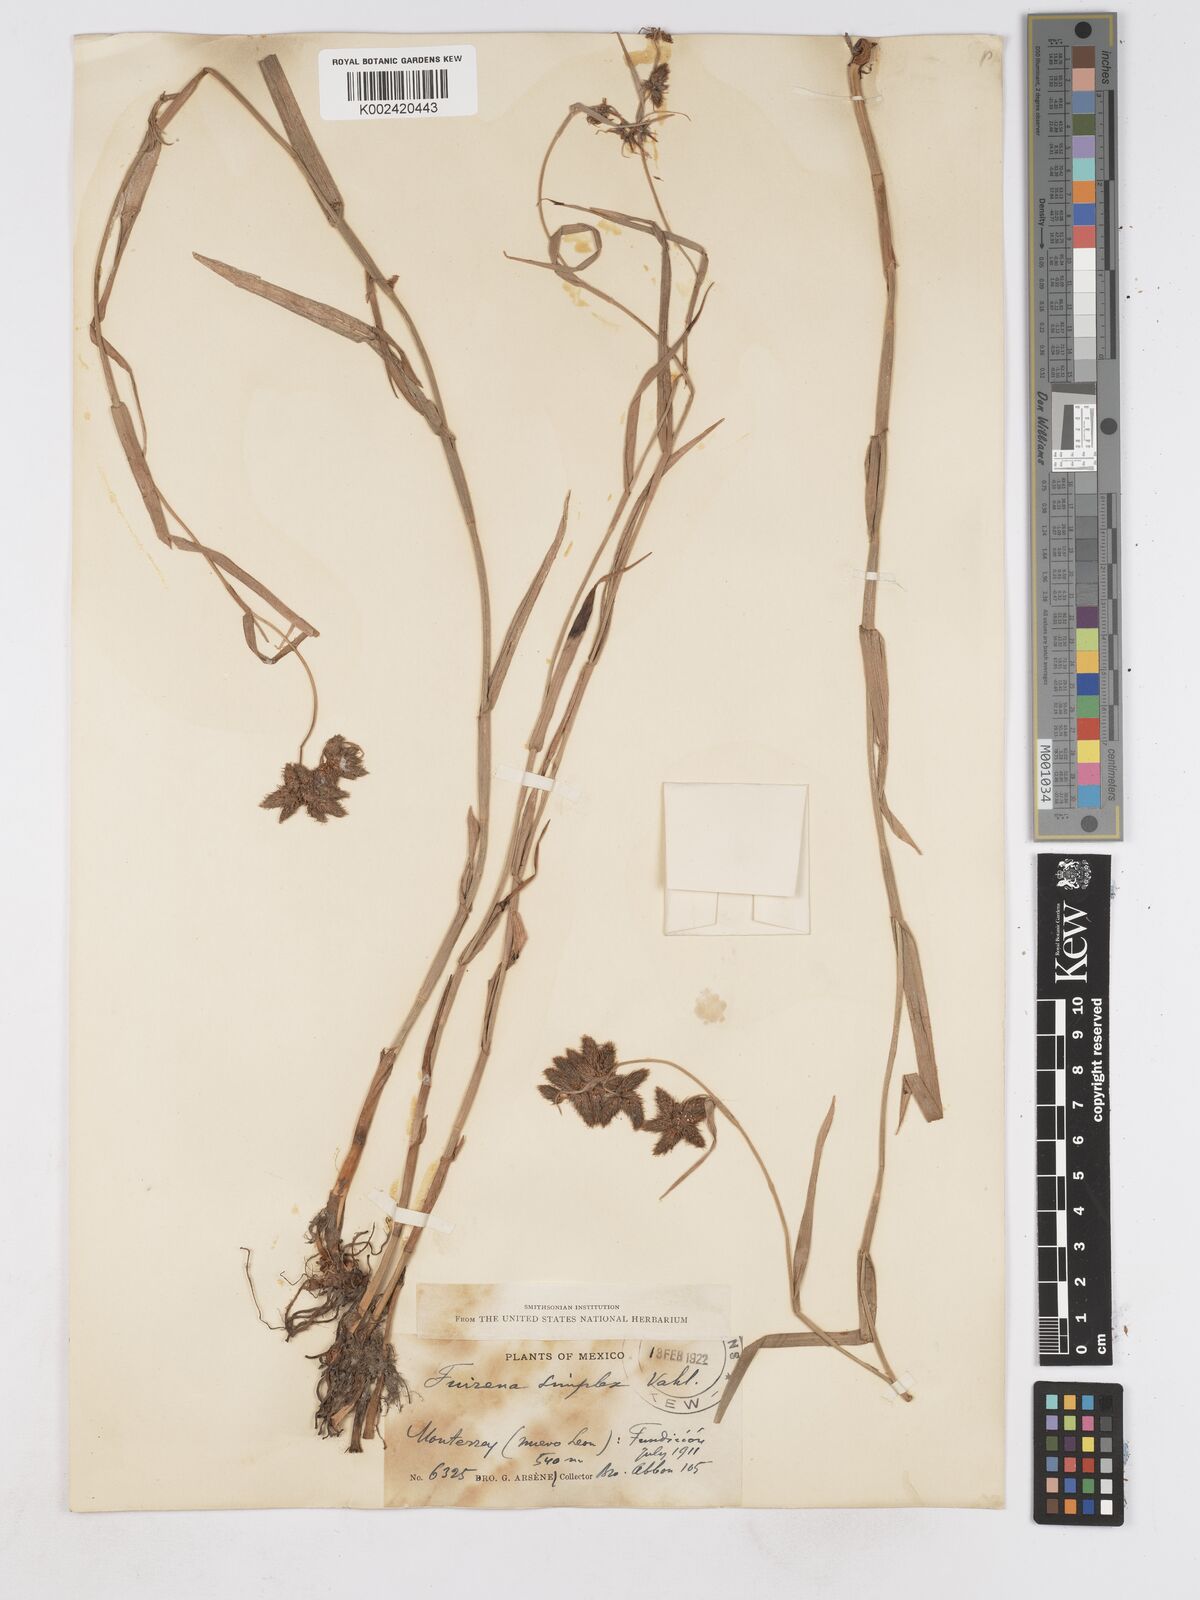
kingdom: Plantae
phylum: Tracheophyta
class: Liliopsida
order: Poales
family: Cyperaceae
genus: Fuirena
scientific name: Fuirena simplex
